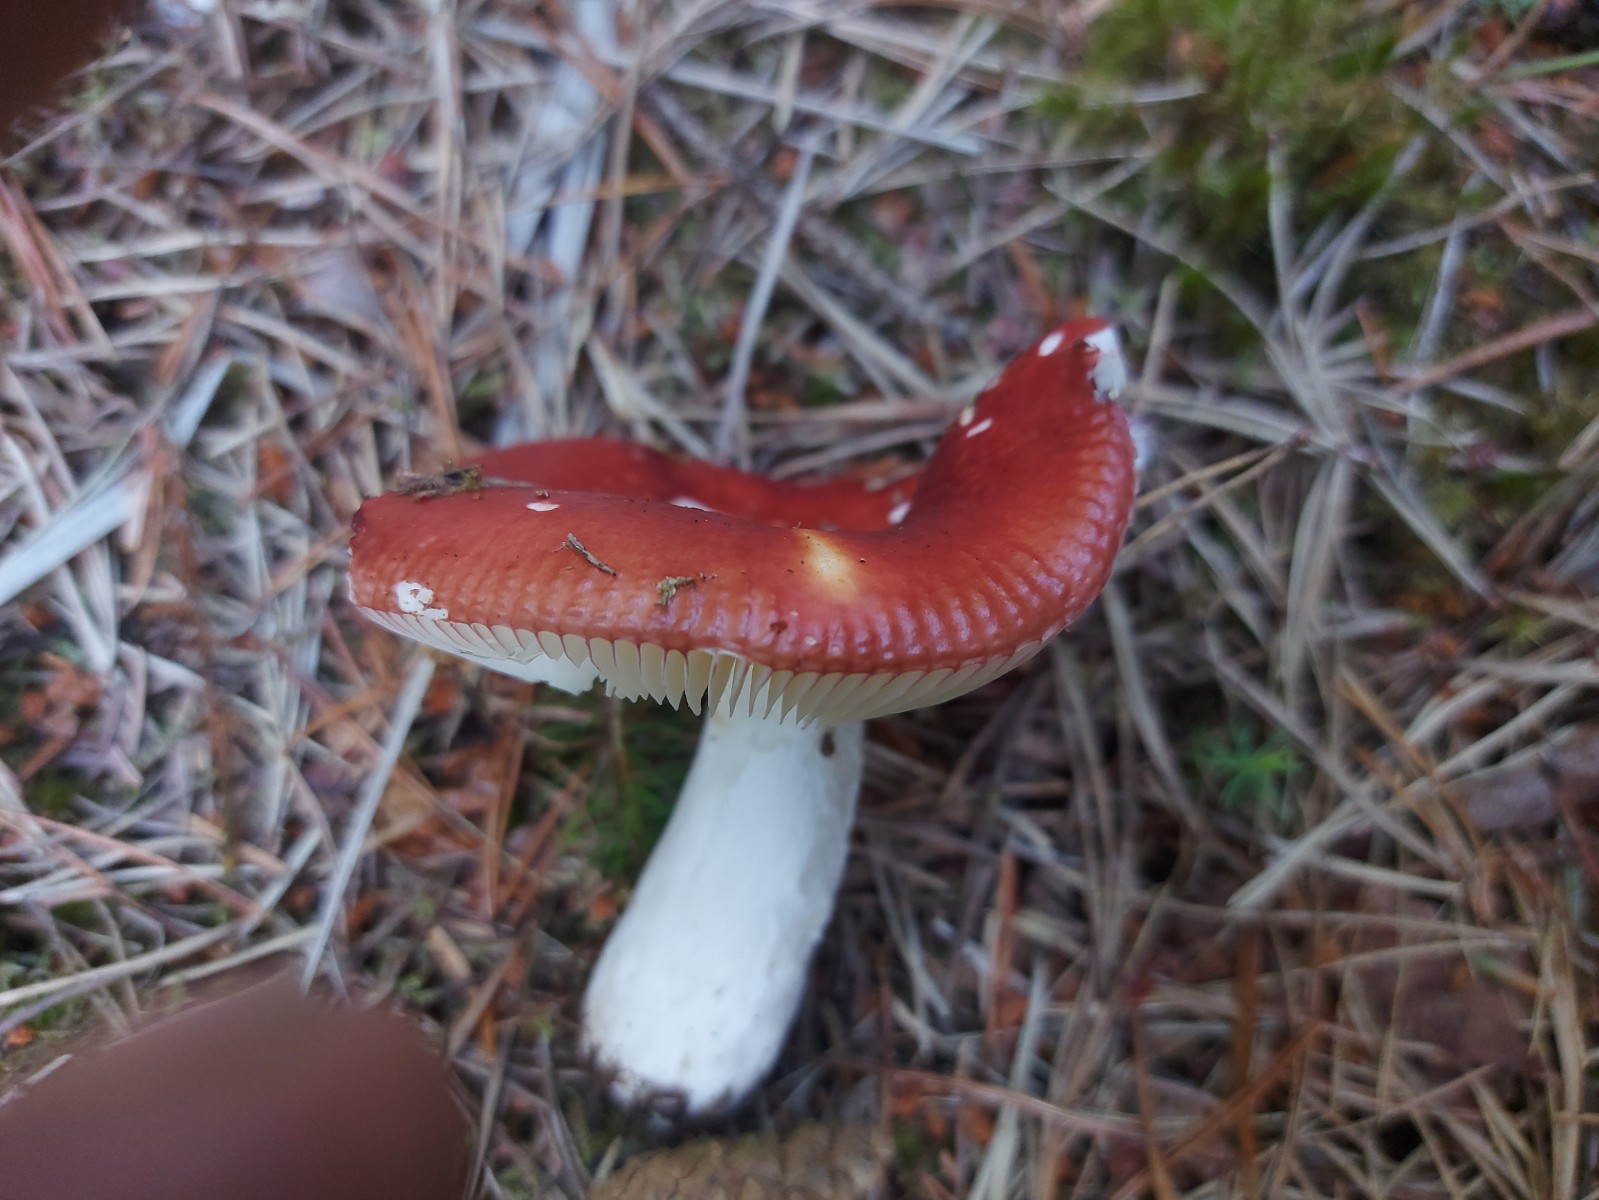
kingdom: Fungi
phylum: Basidiomycota
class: Agaricomycetes
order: Russulales
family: Russulaceae
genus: Russula
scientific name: Russula paludosa
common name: prægtig skørhat
